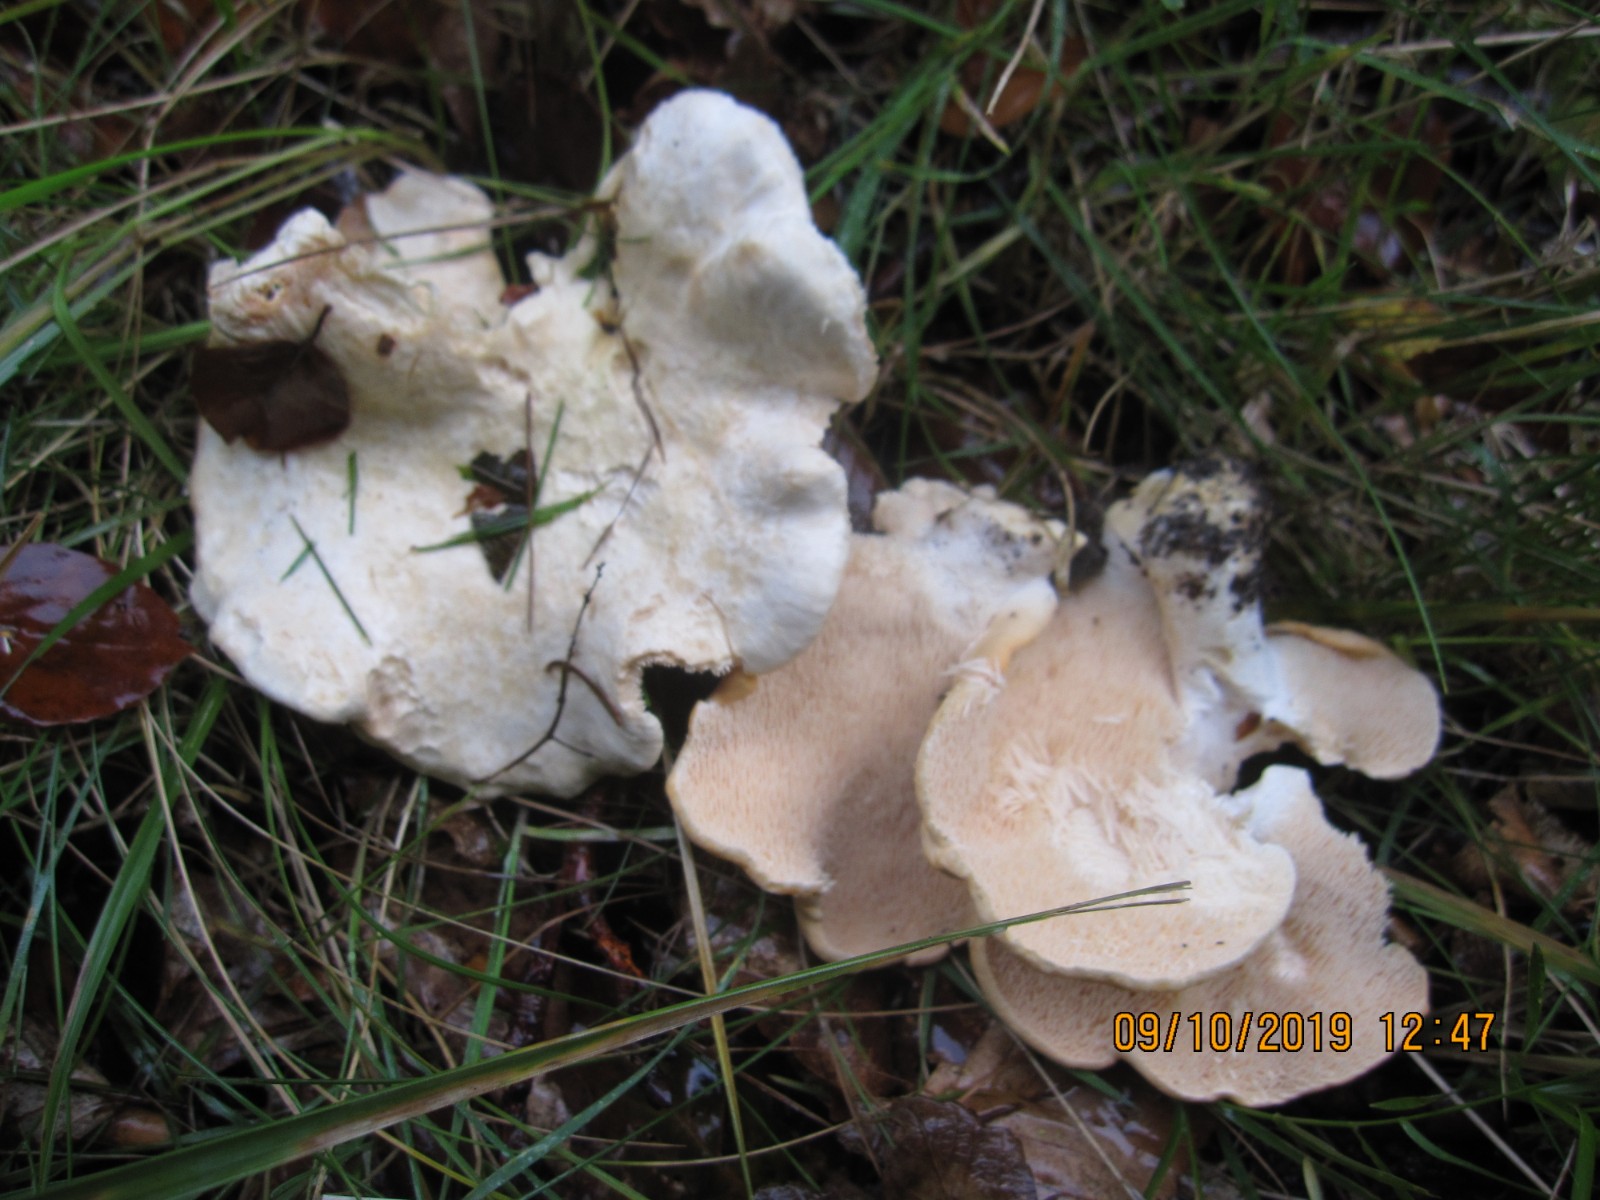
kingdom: Fungi
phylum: Basidiomycota
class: Agaricomycetes
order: Cantharellales
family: Hydnaceae
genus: Hydnum
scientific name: Hydnum repandum
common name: almindelig pigsvamp
